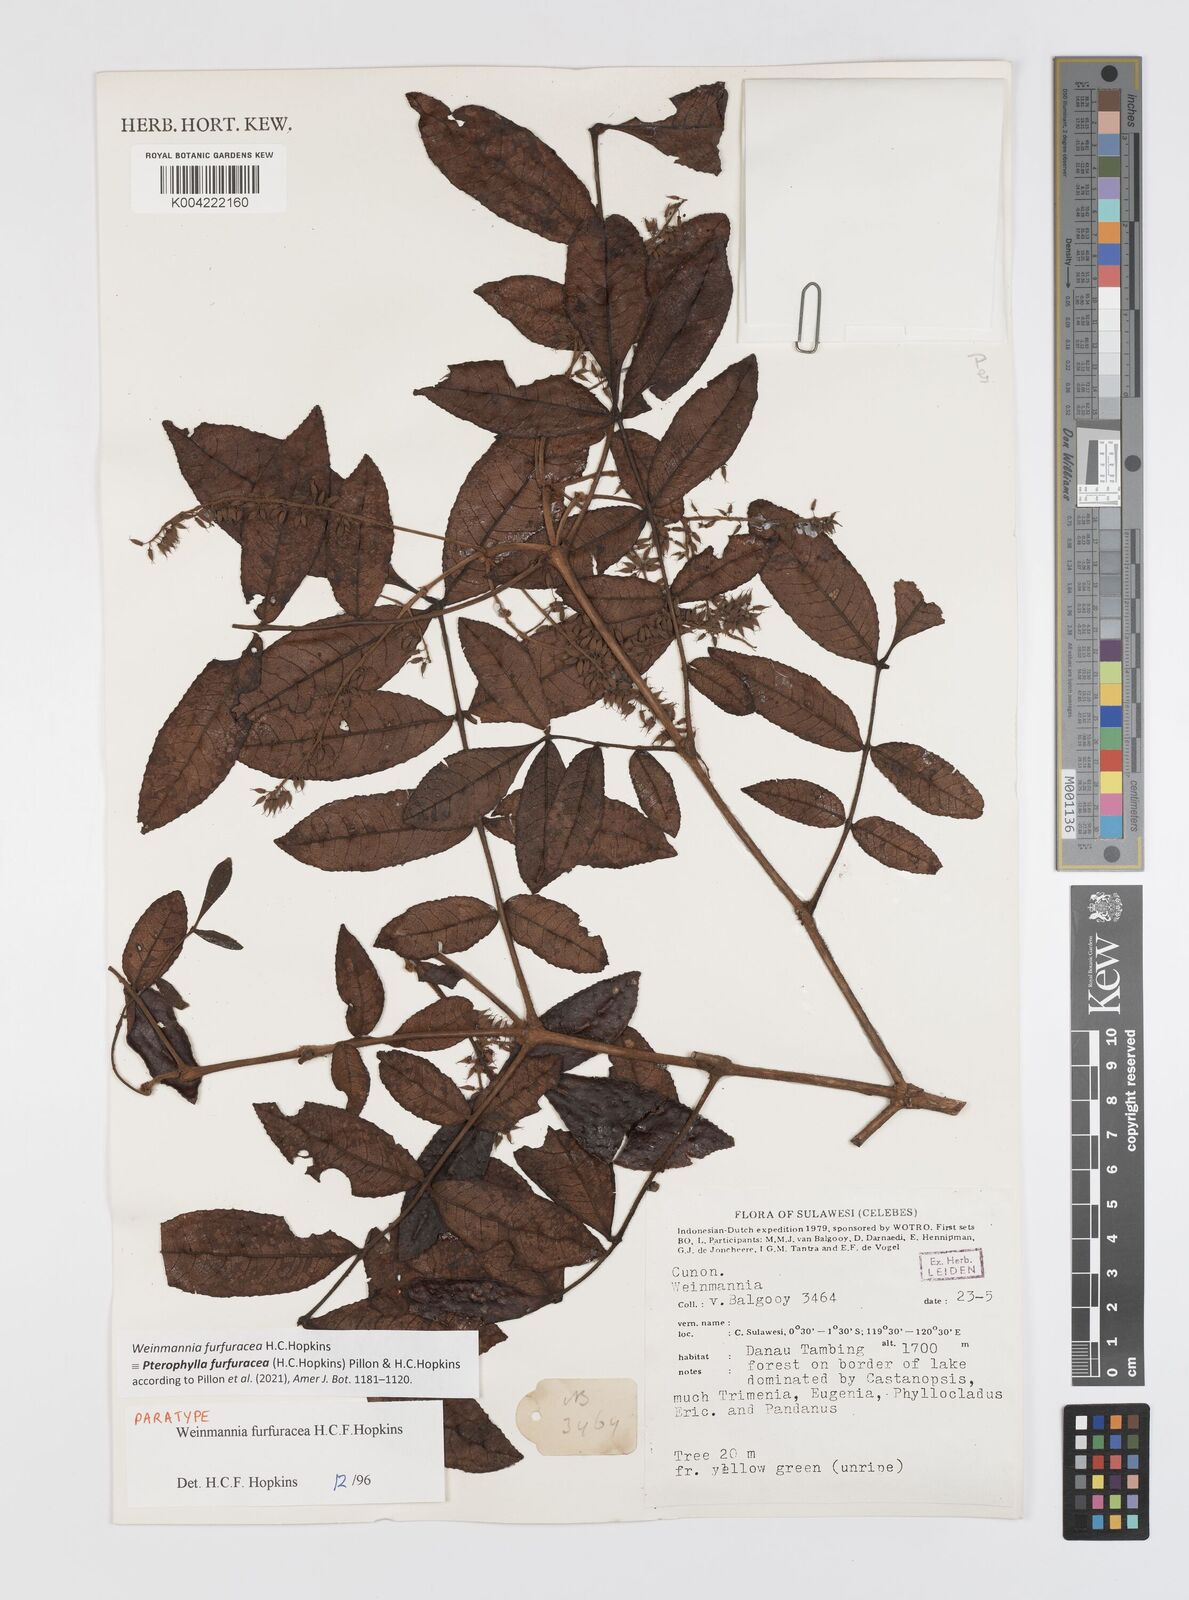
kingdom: Plantae
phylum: Tracheophyta
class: Magnoliopsida
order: Oxalidales
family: Cunoniaceae
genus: Pterophylla
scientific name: Pterophylla furfuracea
